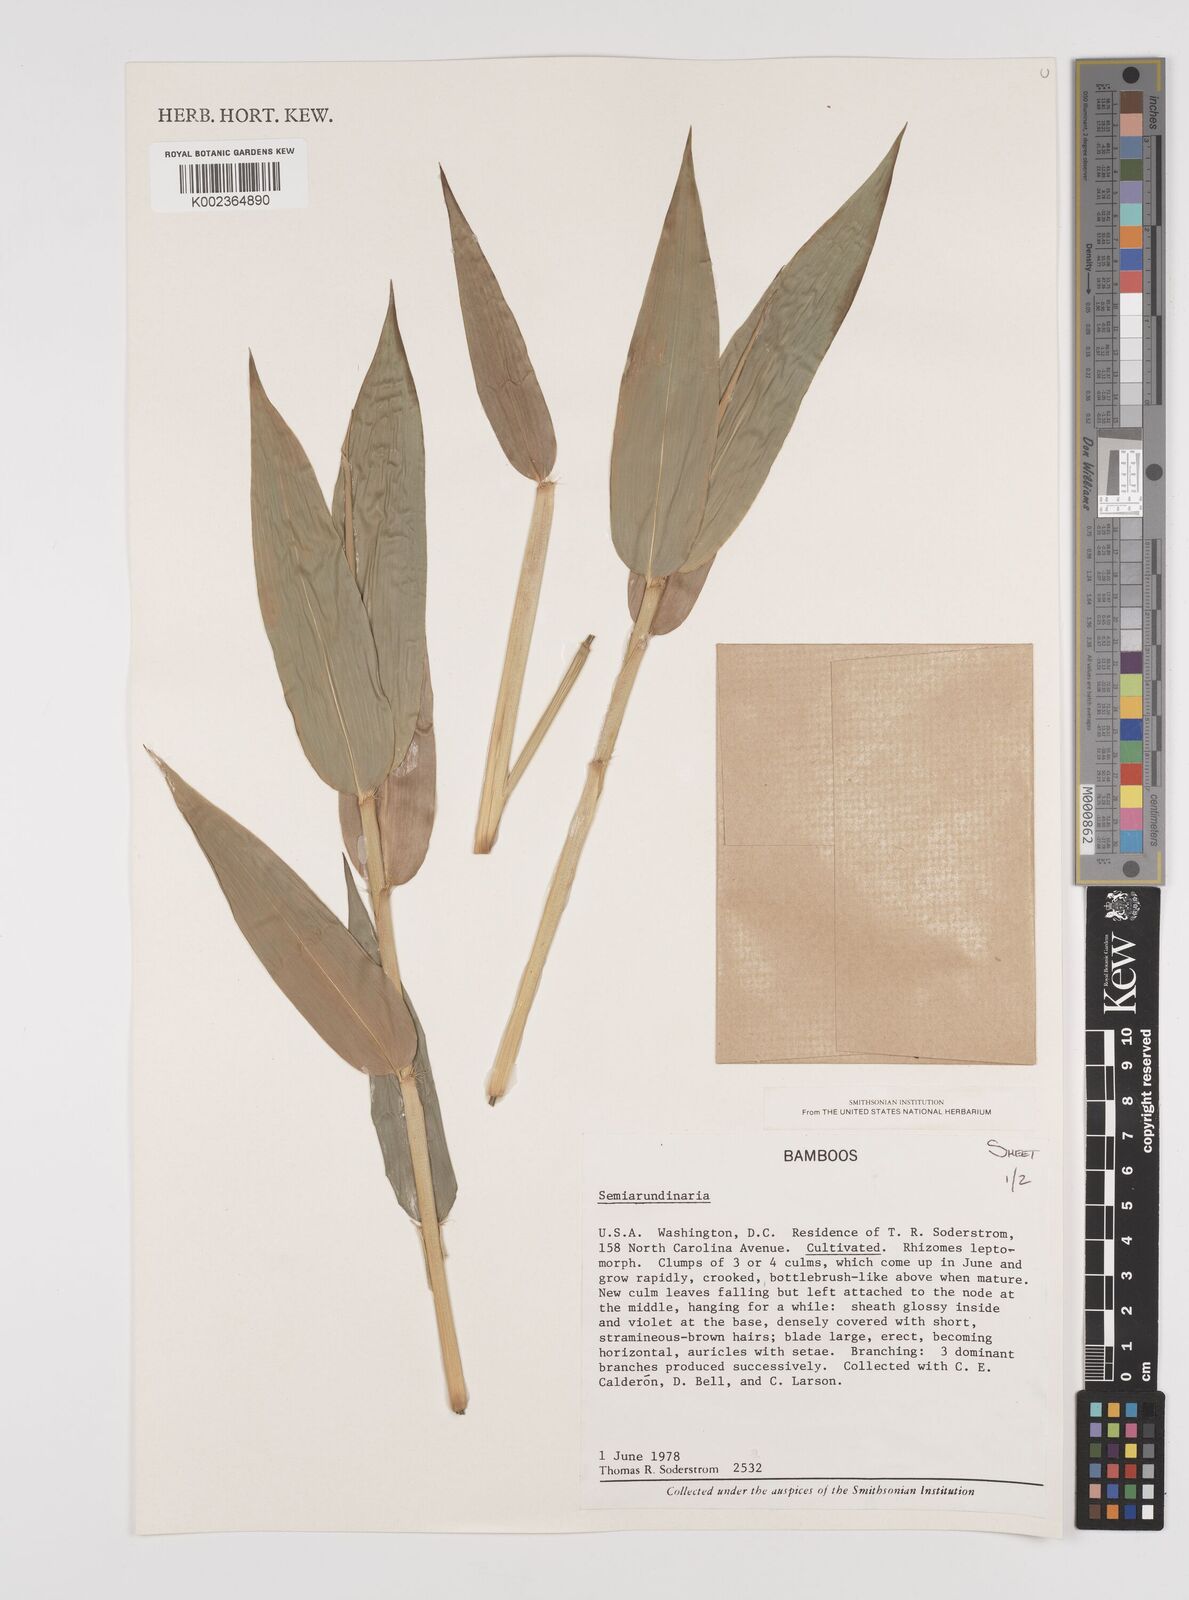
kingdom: Plantae
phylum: Tracheophyta
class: Liliopsida
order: Poales
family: Poaceae
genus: Semiarundinaria
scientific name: Semiarundinaria
